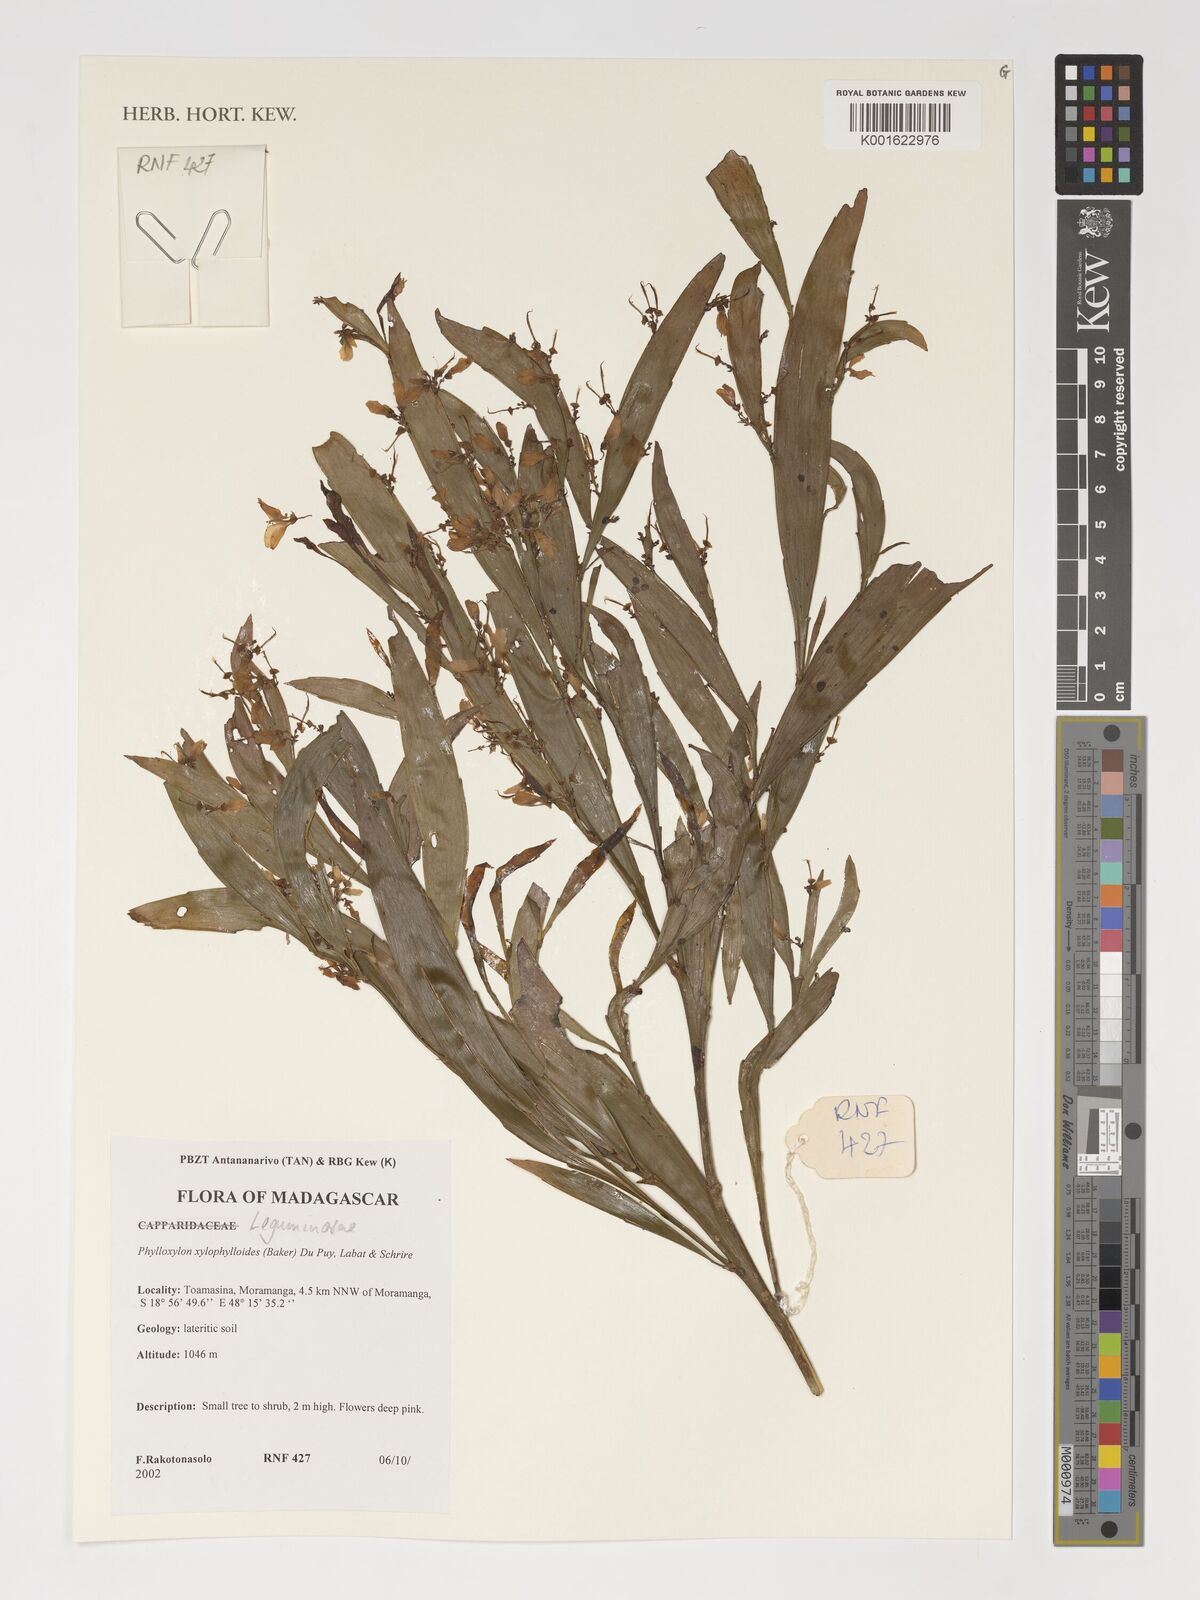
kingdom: Plantae
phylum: Tracheophyta
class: Magnoliopsida
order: Fabales
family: Fabaceae
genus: Phylloxylon
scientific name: Phylloxylon xylophylloides
